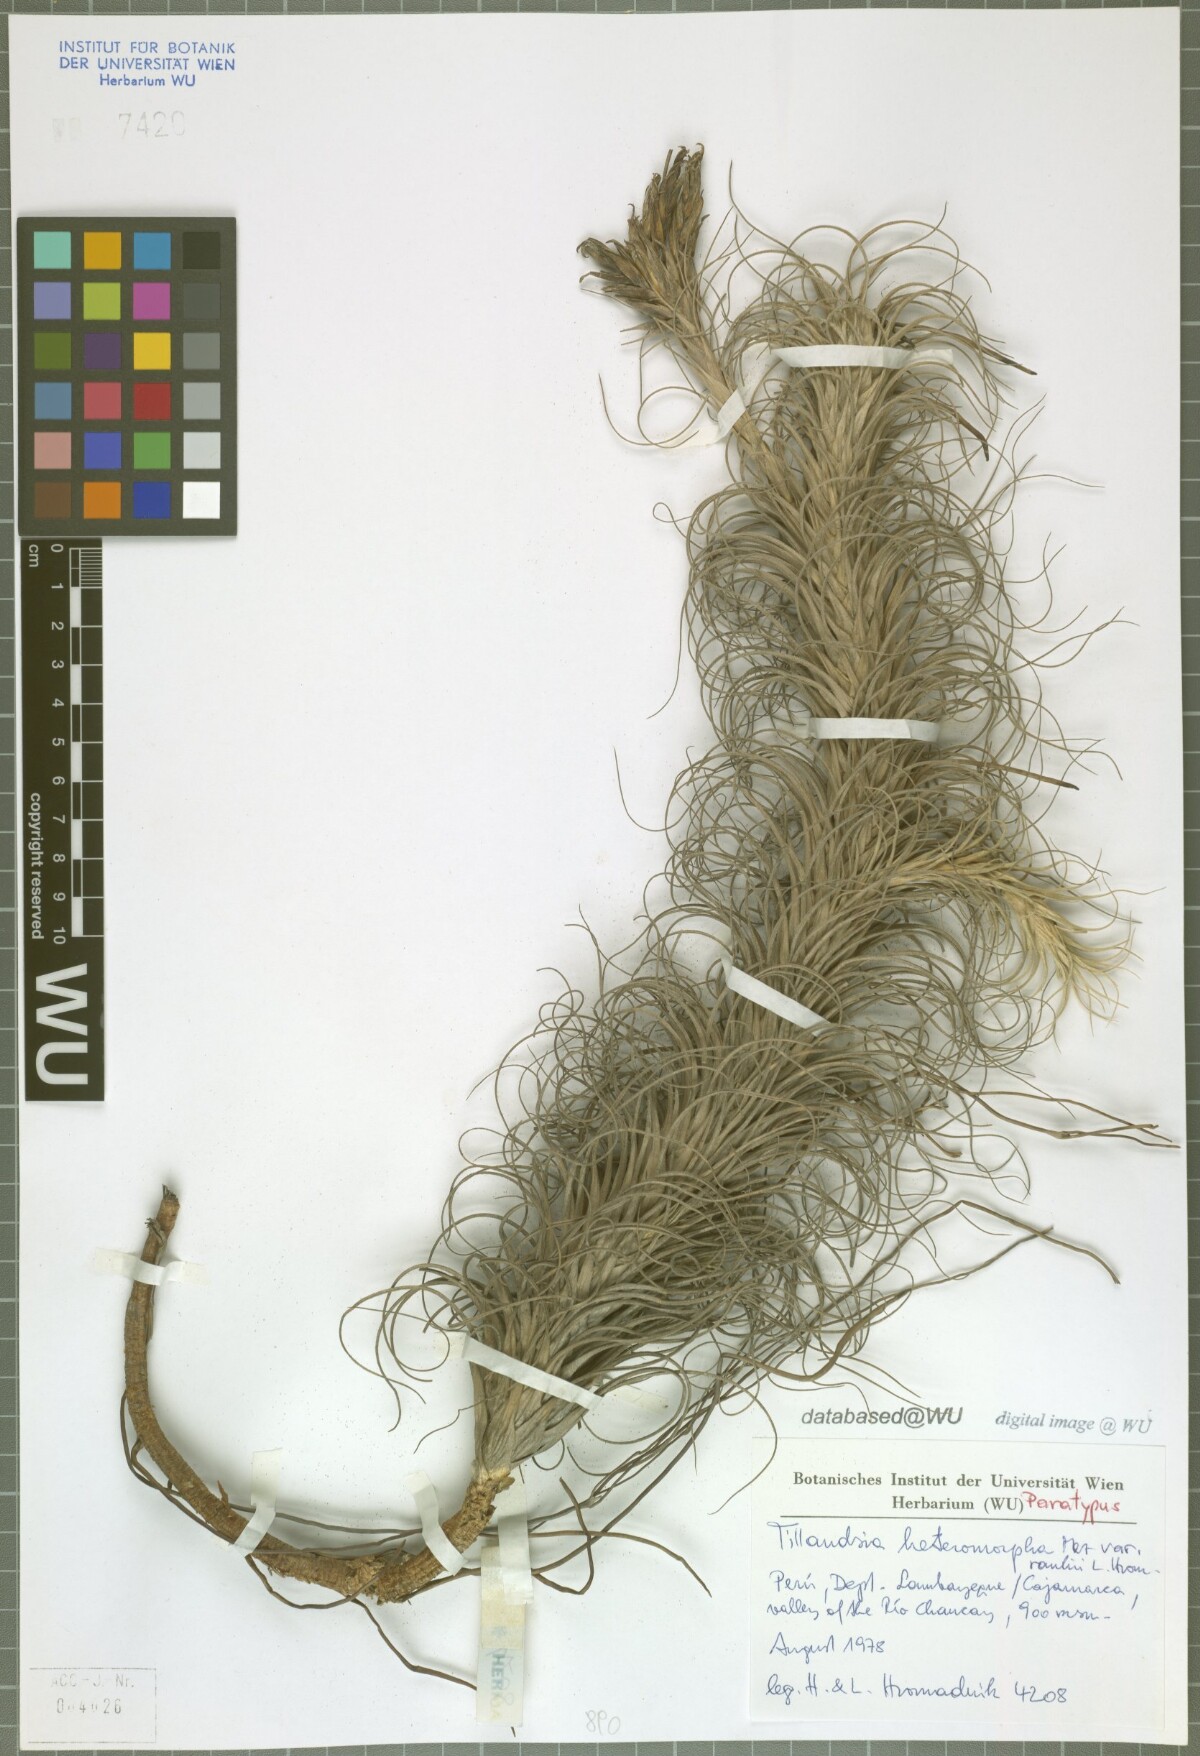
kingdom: Plantae
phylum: Tracheophyta
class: Liliopsida
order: Poales
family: Bromeliaceae
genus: Tillandsia
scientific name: Tillandsia heteromorpha
